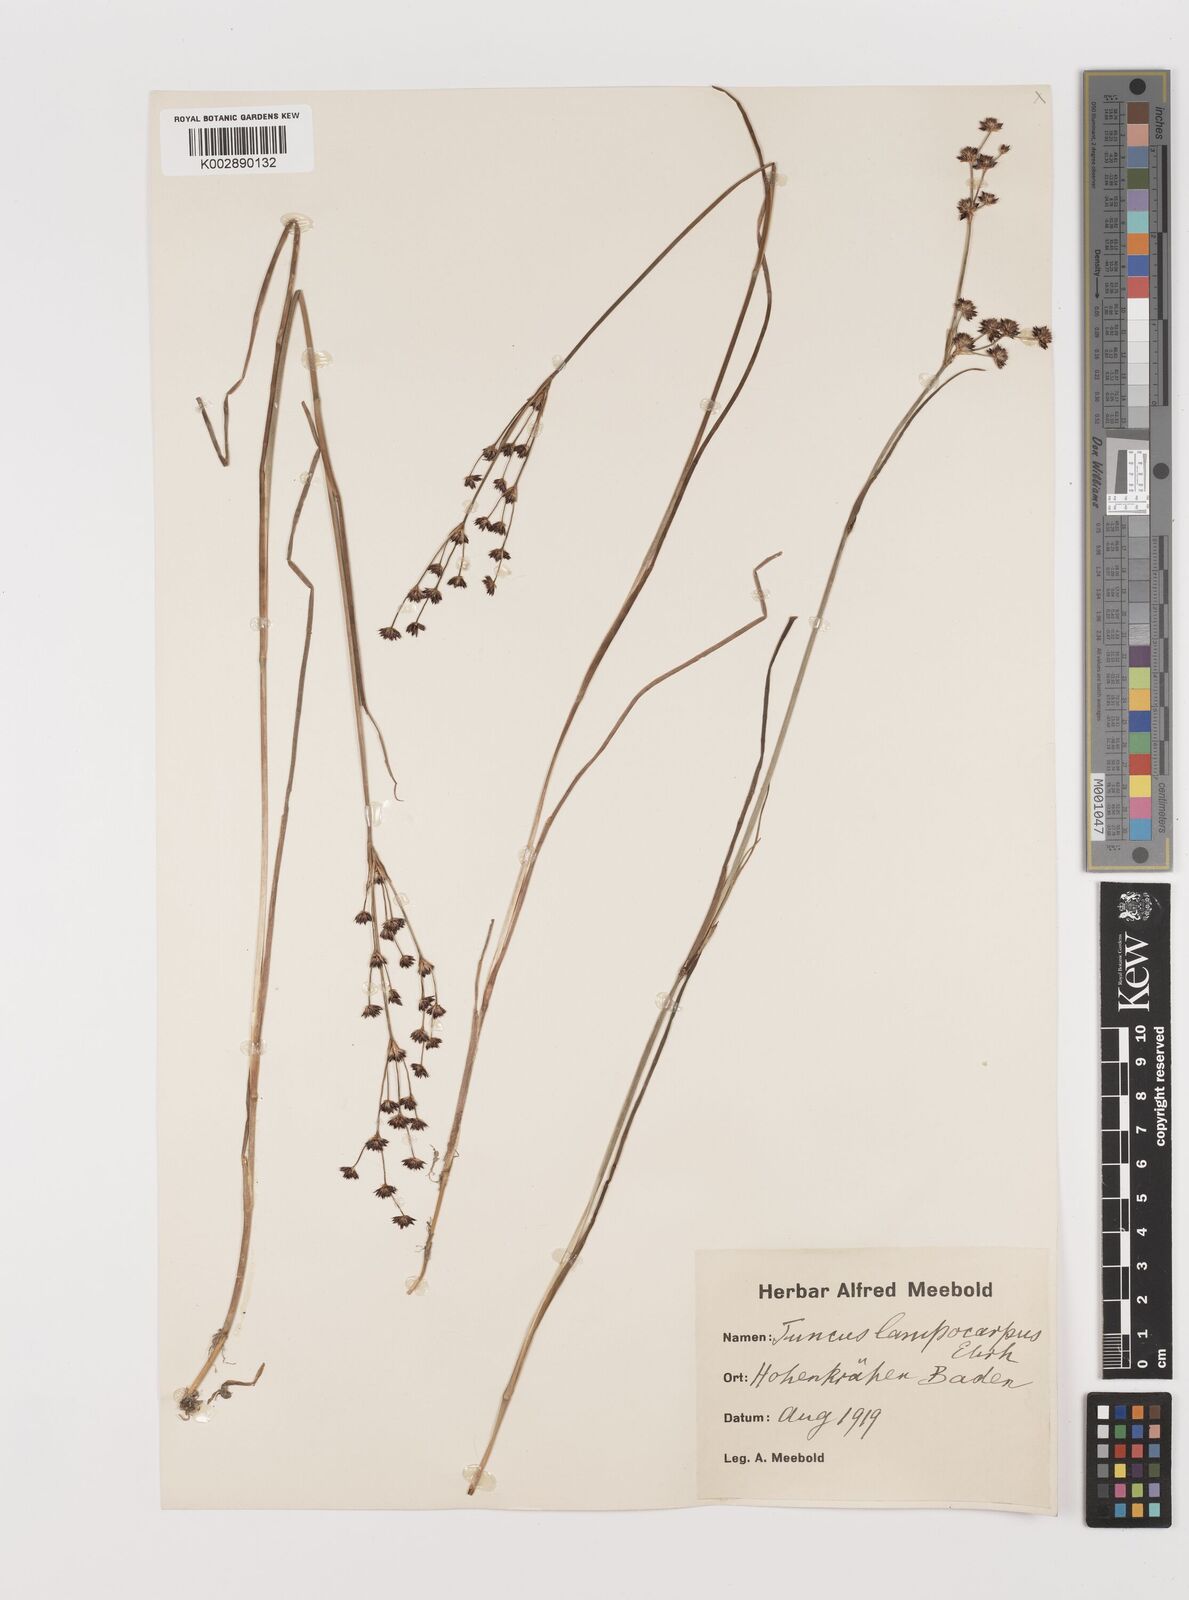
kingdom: Plantae
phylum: Tracheophyta
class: Liliopsida
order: Poales
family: Juncaceae
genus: Juncus
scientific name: Juncus articulatus
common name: Jointed rush
